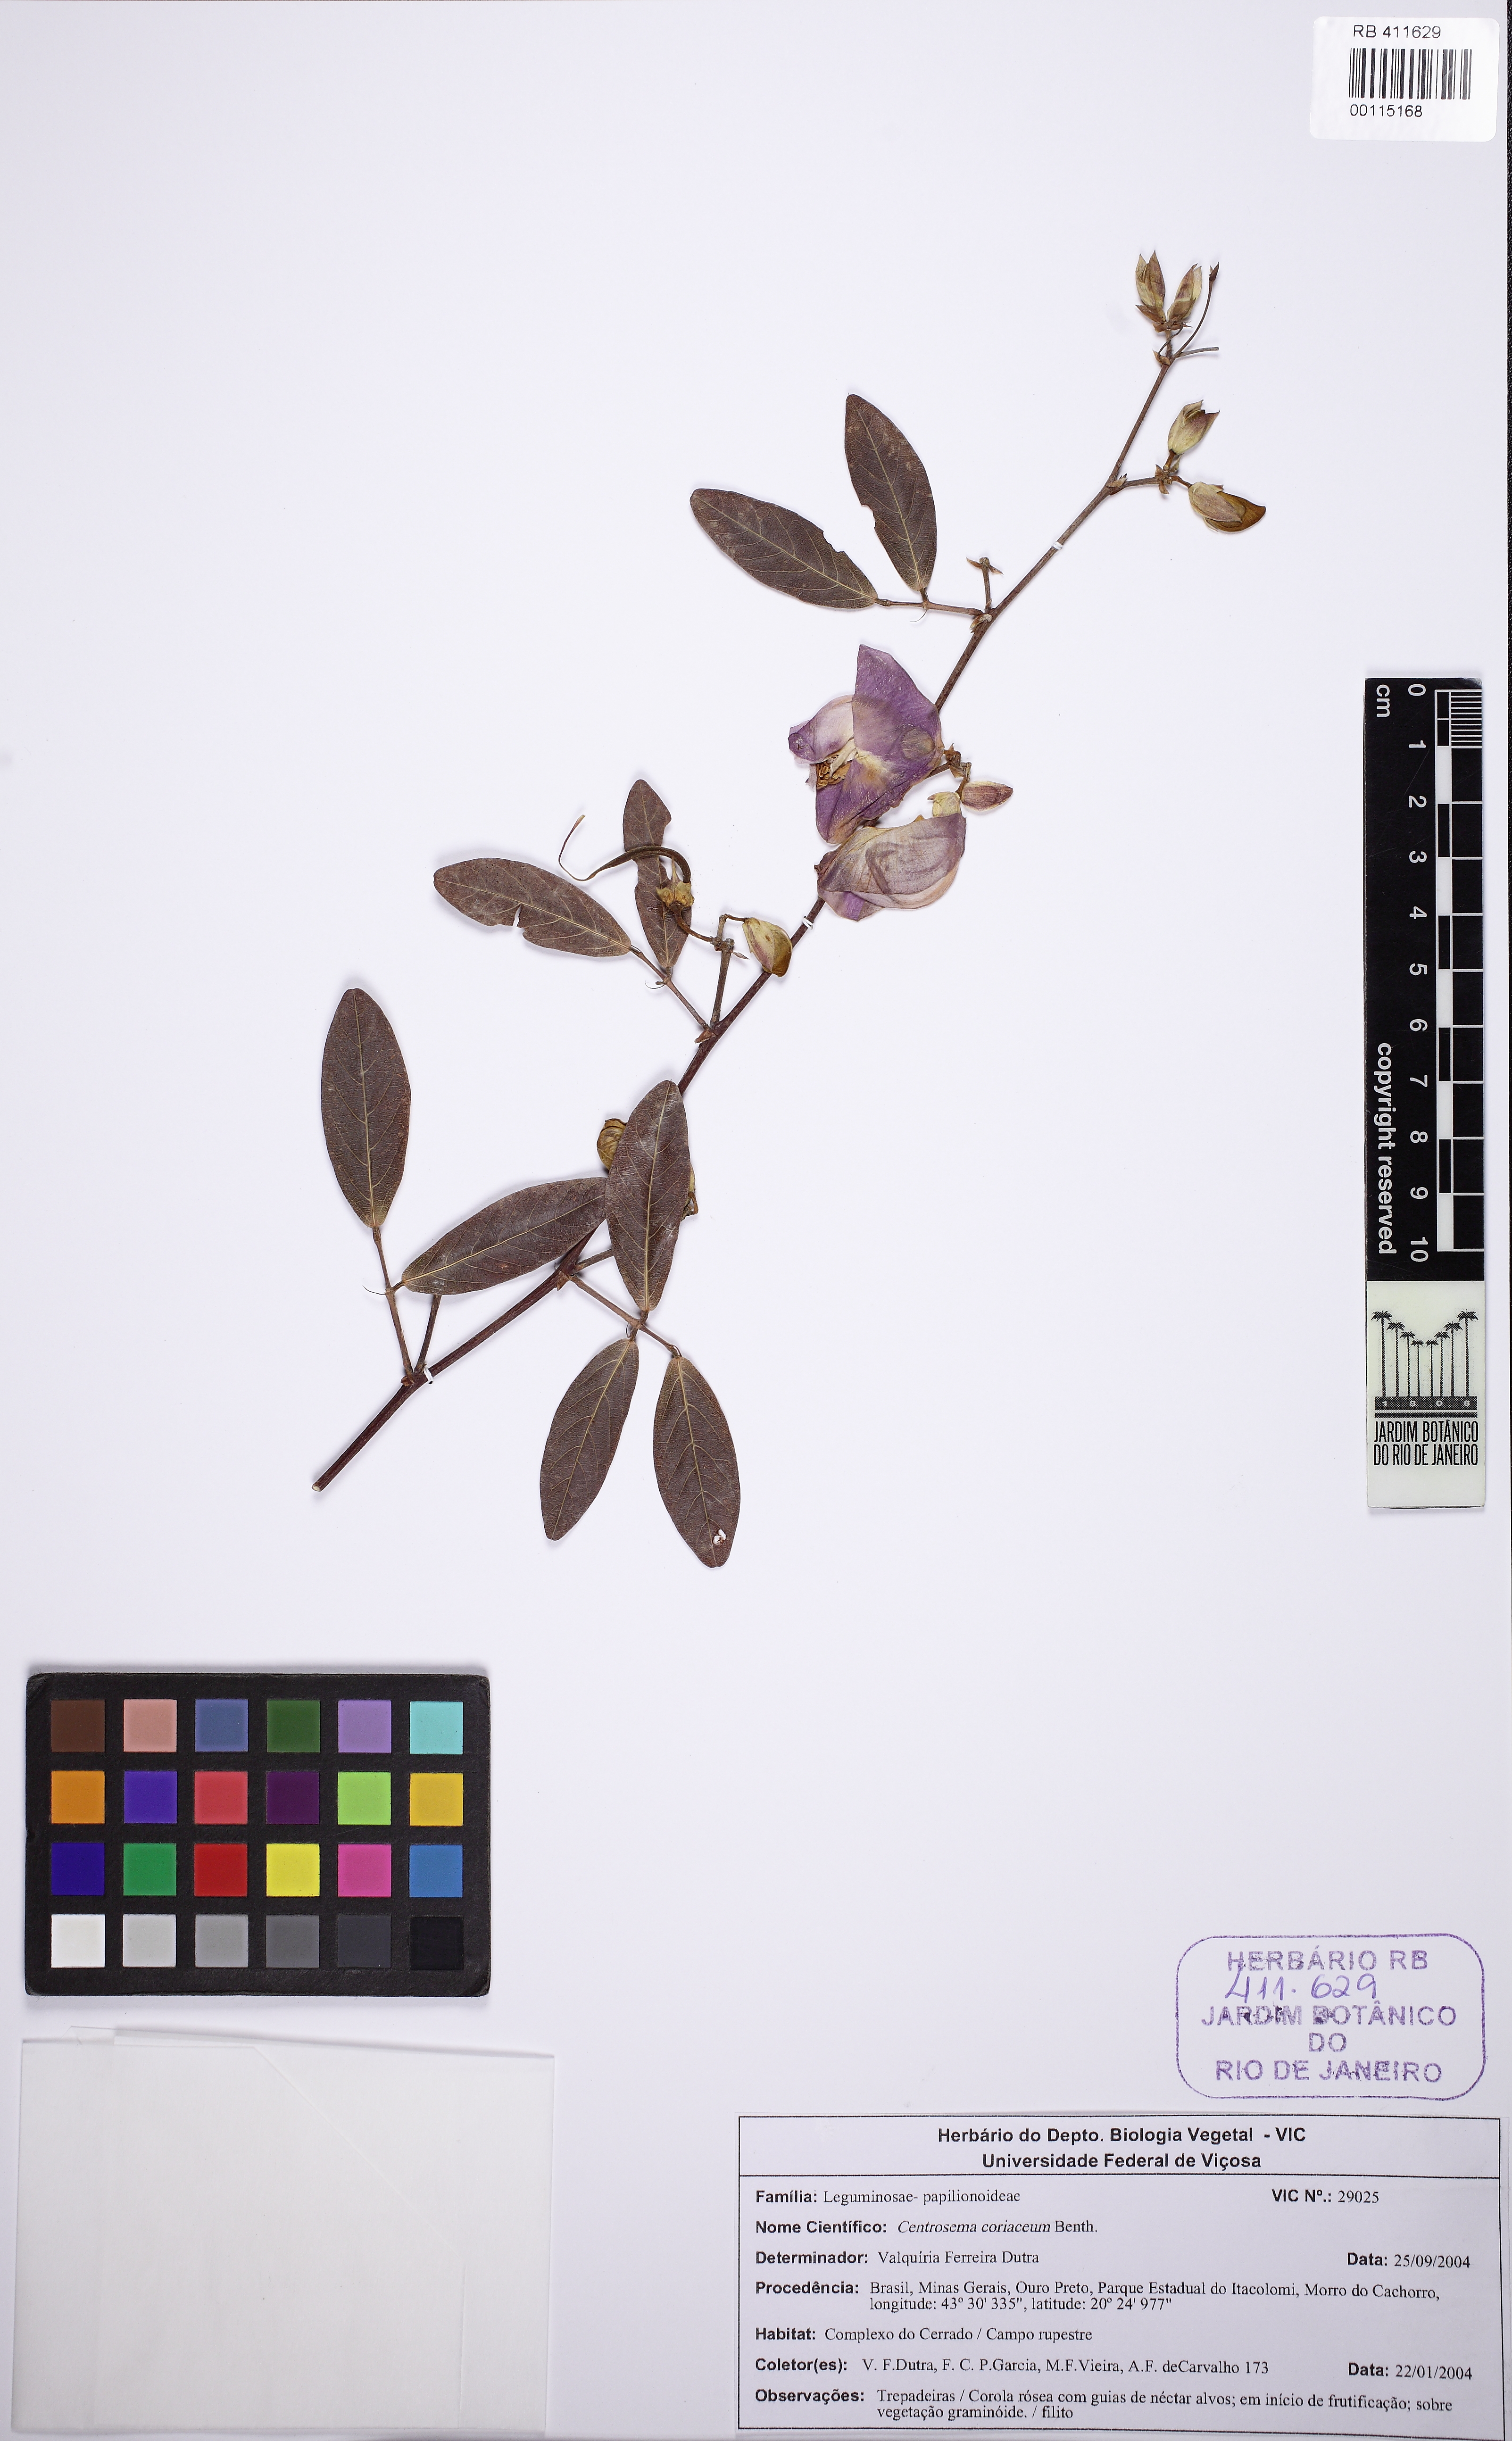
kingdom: Plantae
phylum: Tracheophyta
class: Magnoliopsida
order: Fabales
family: Fabaceae
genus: Centrosema
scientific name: Centrosema coriaceum
